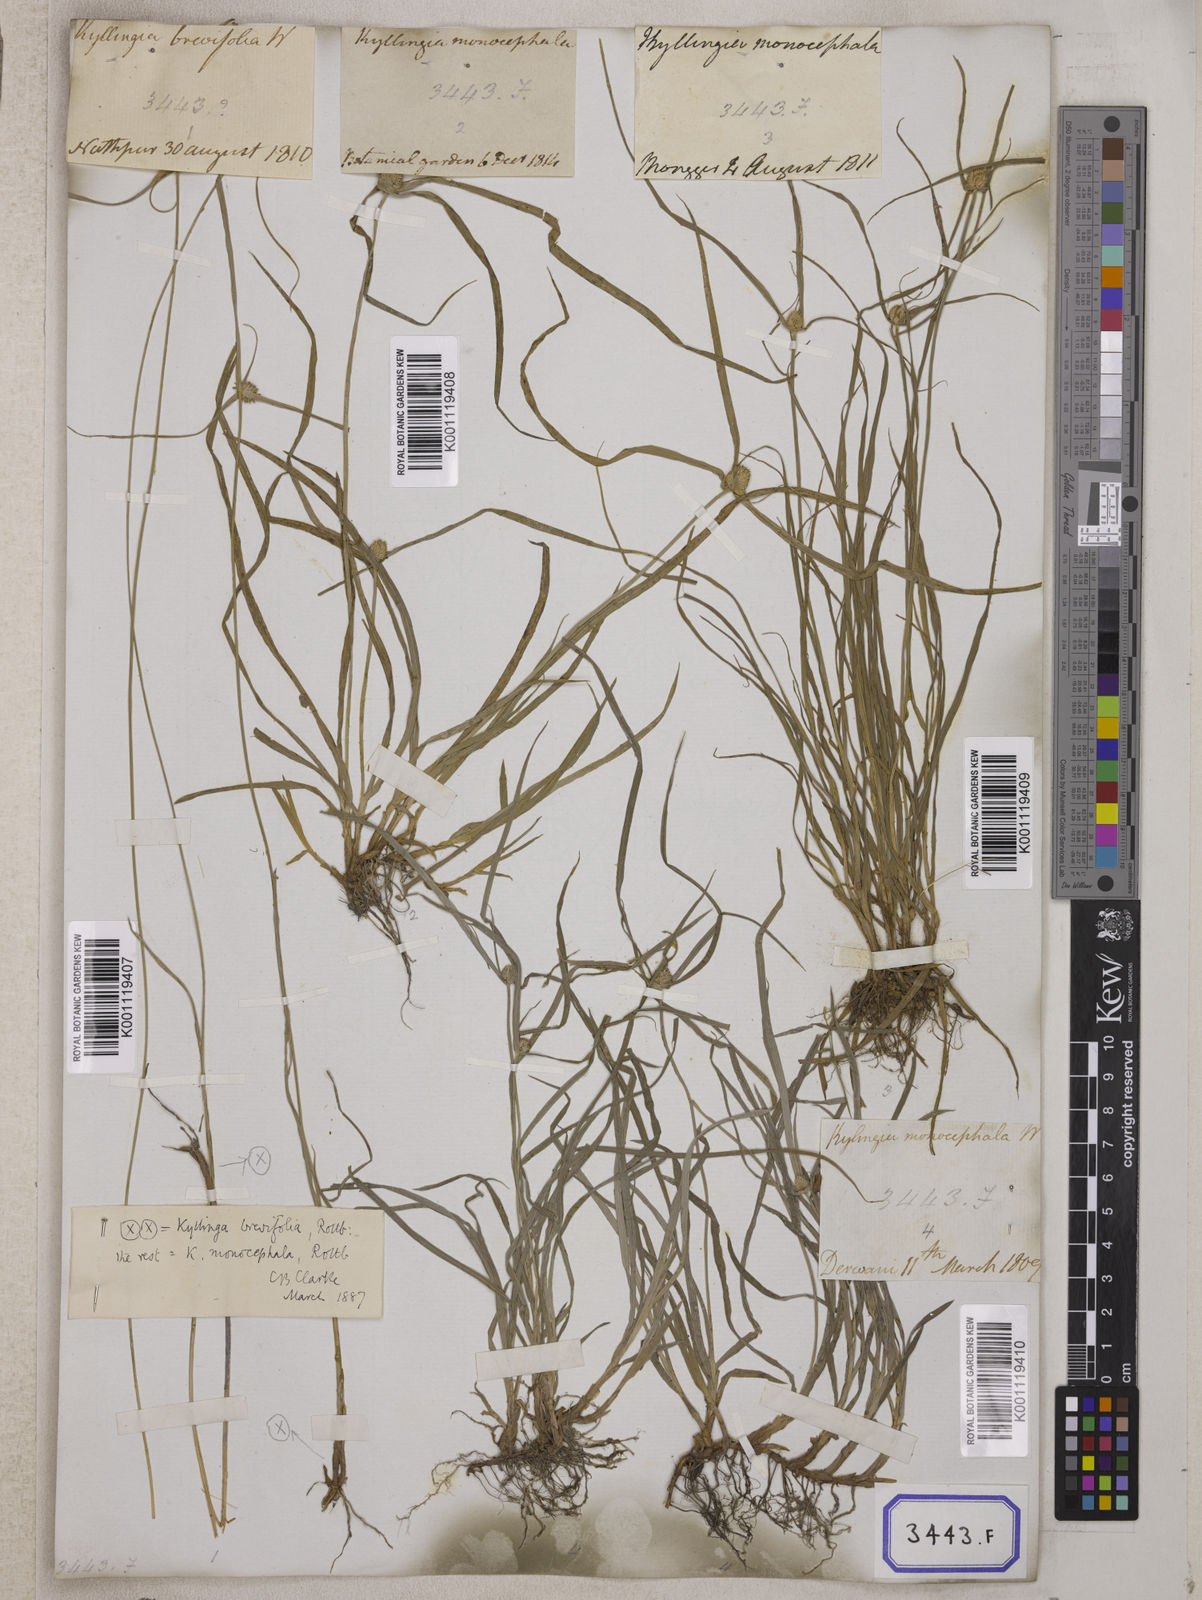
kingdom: Plantae
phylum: Tracheophyta
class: Liliopsida
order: Poales
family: Cyperaceae
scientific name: Cyperaceae
